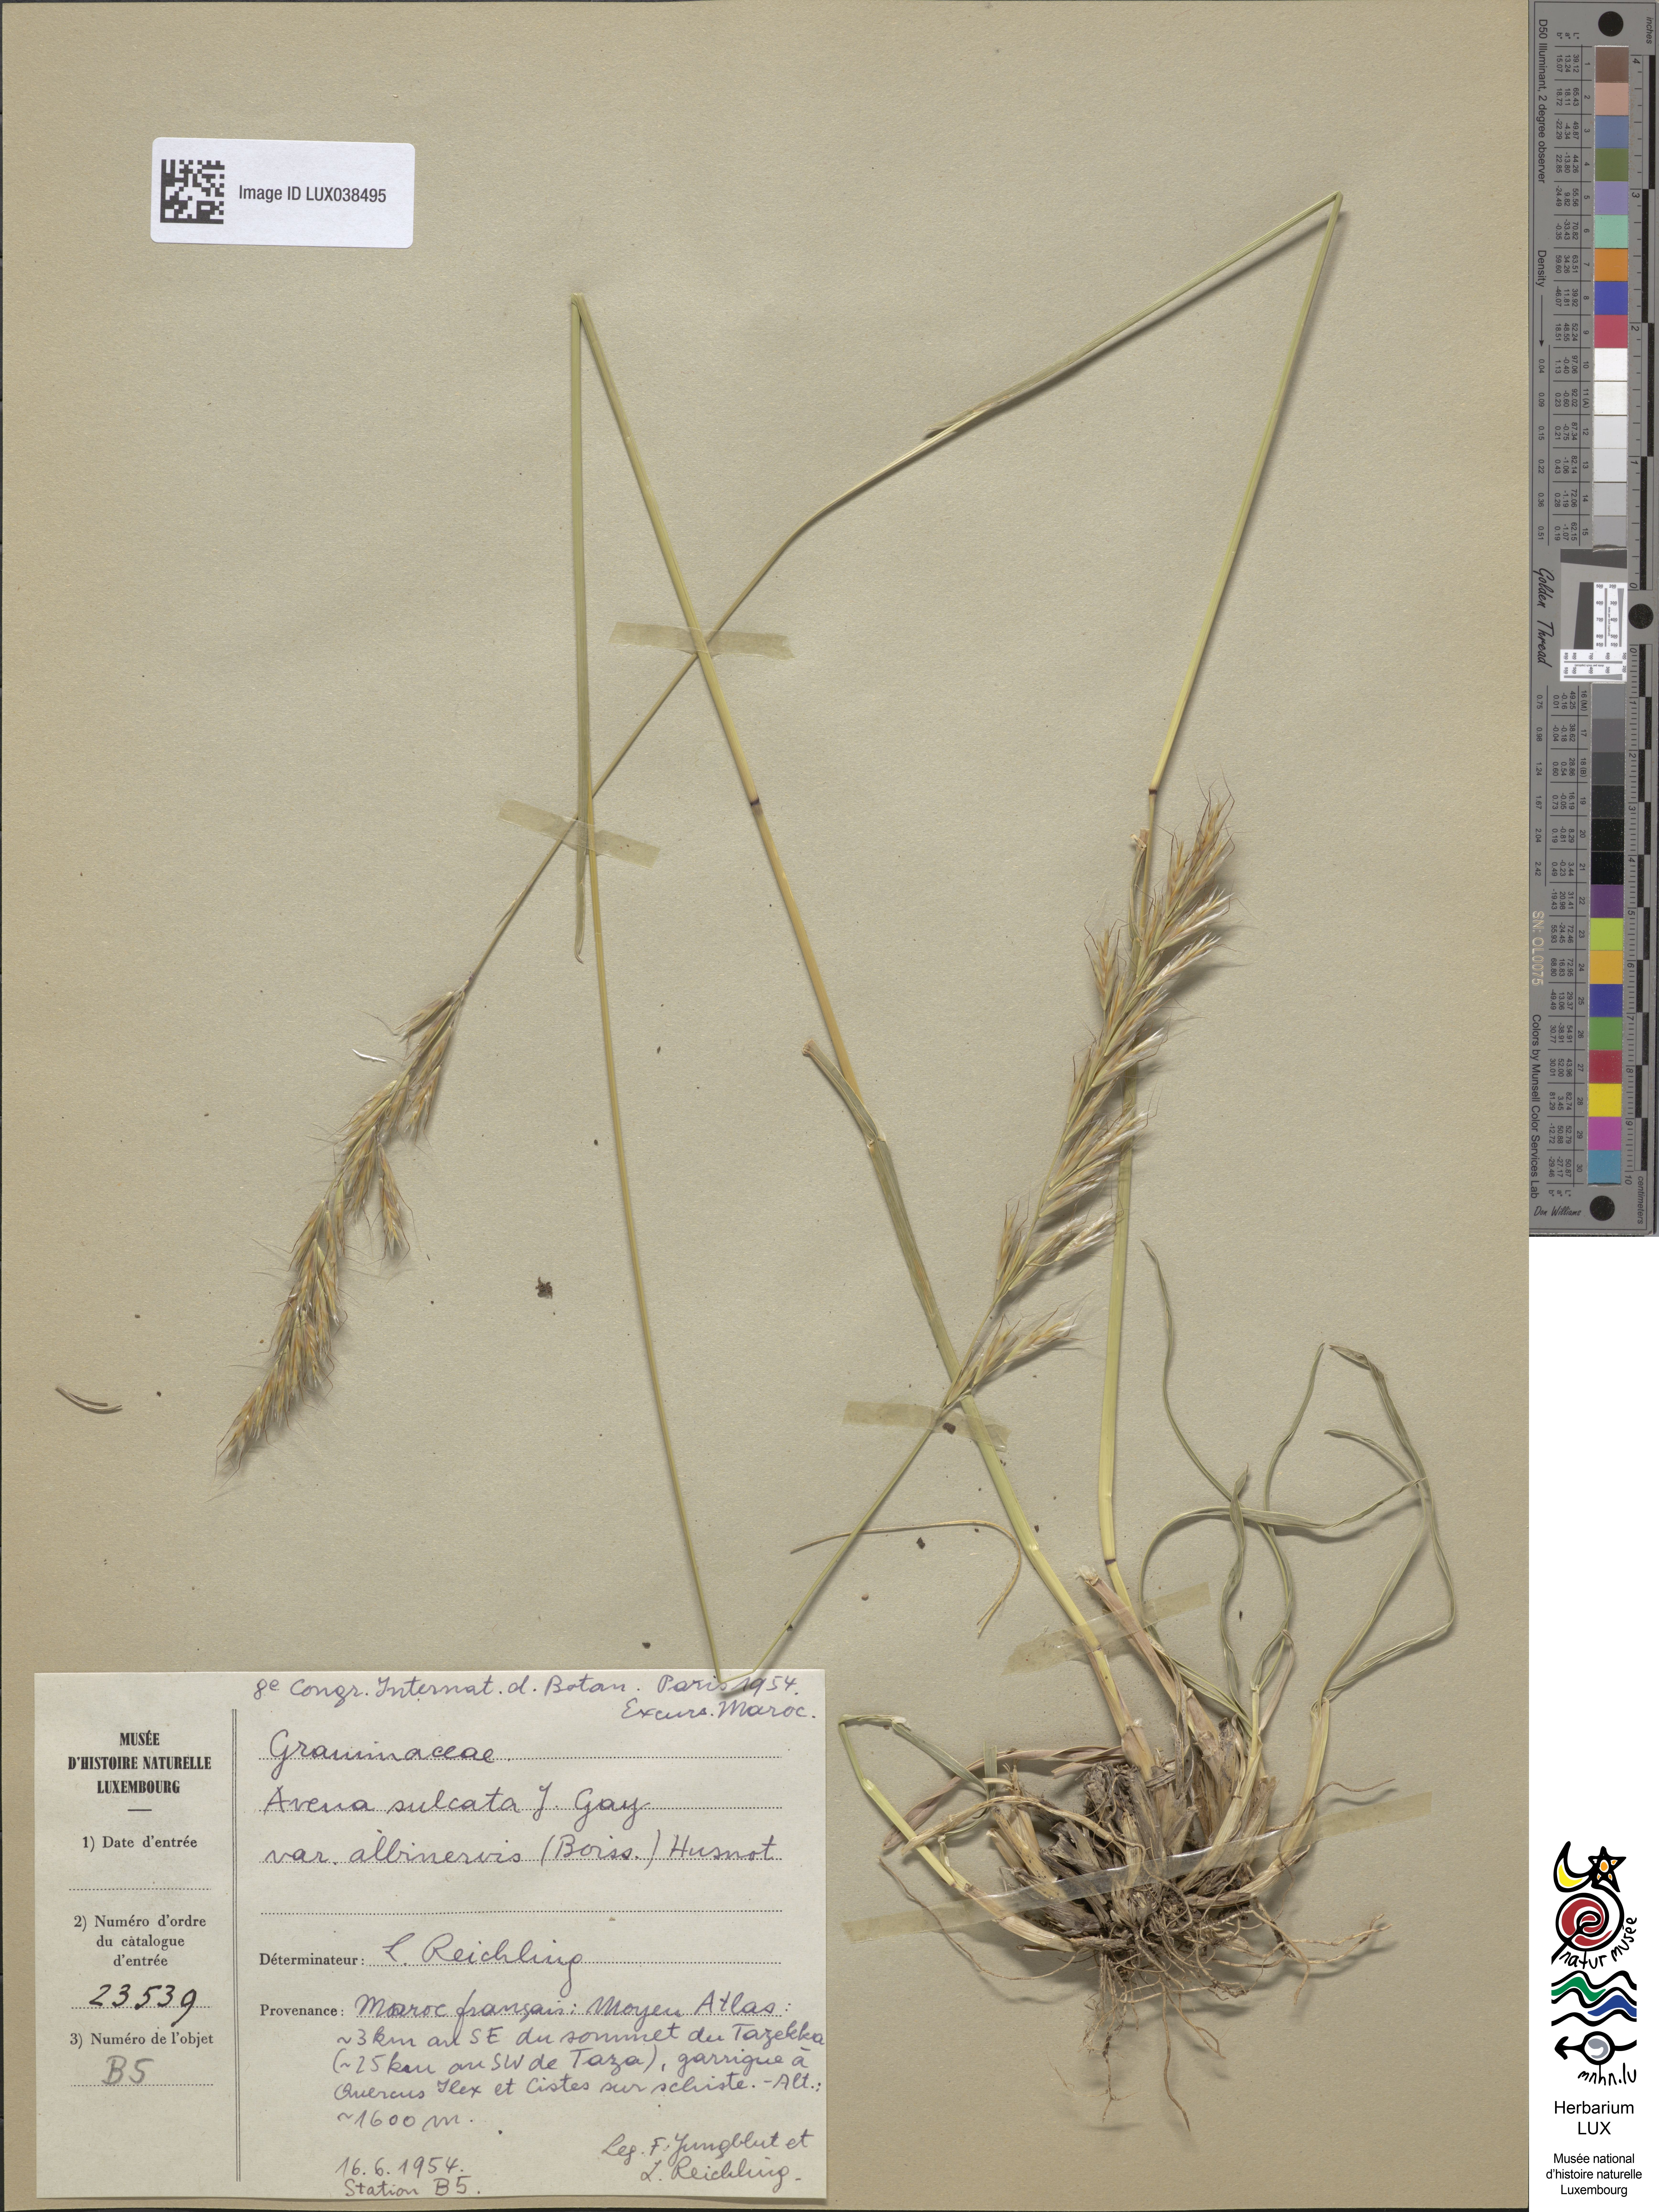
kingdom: Plantae
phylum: Tracheophyta
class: Liliopsida
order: Poales
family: Poaceae
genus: Helictochloa
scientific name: Helictochloa albinervis
